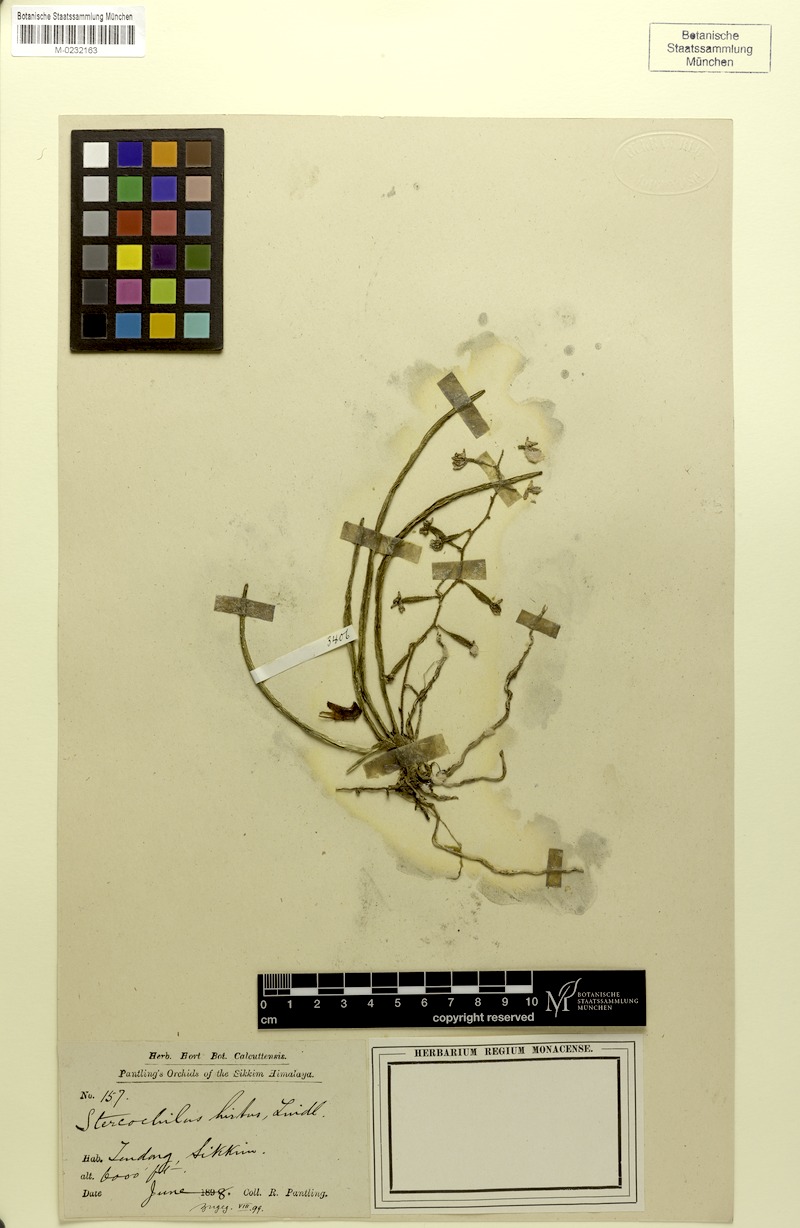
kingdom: Plantae
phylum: Tracheophyta
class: Liliopsida
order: Asparagales
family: Orchidaceae
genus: Stereochilus
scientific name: Stereochilus hirtus
